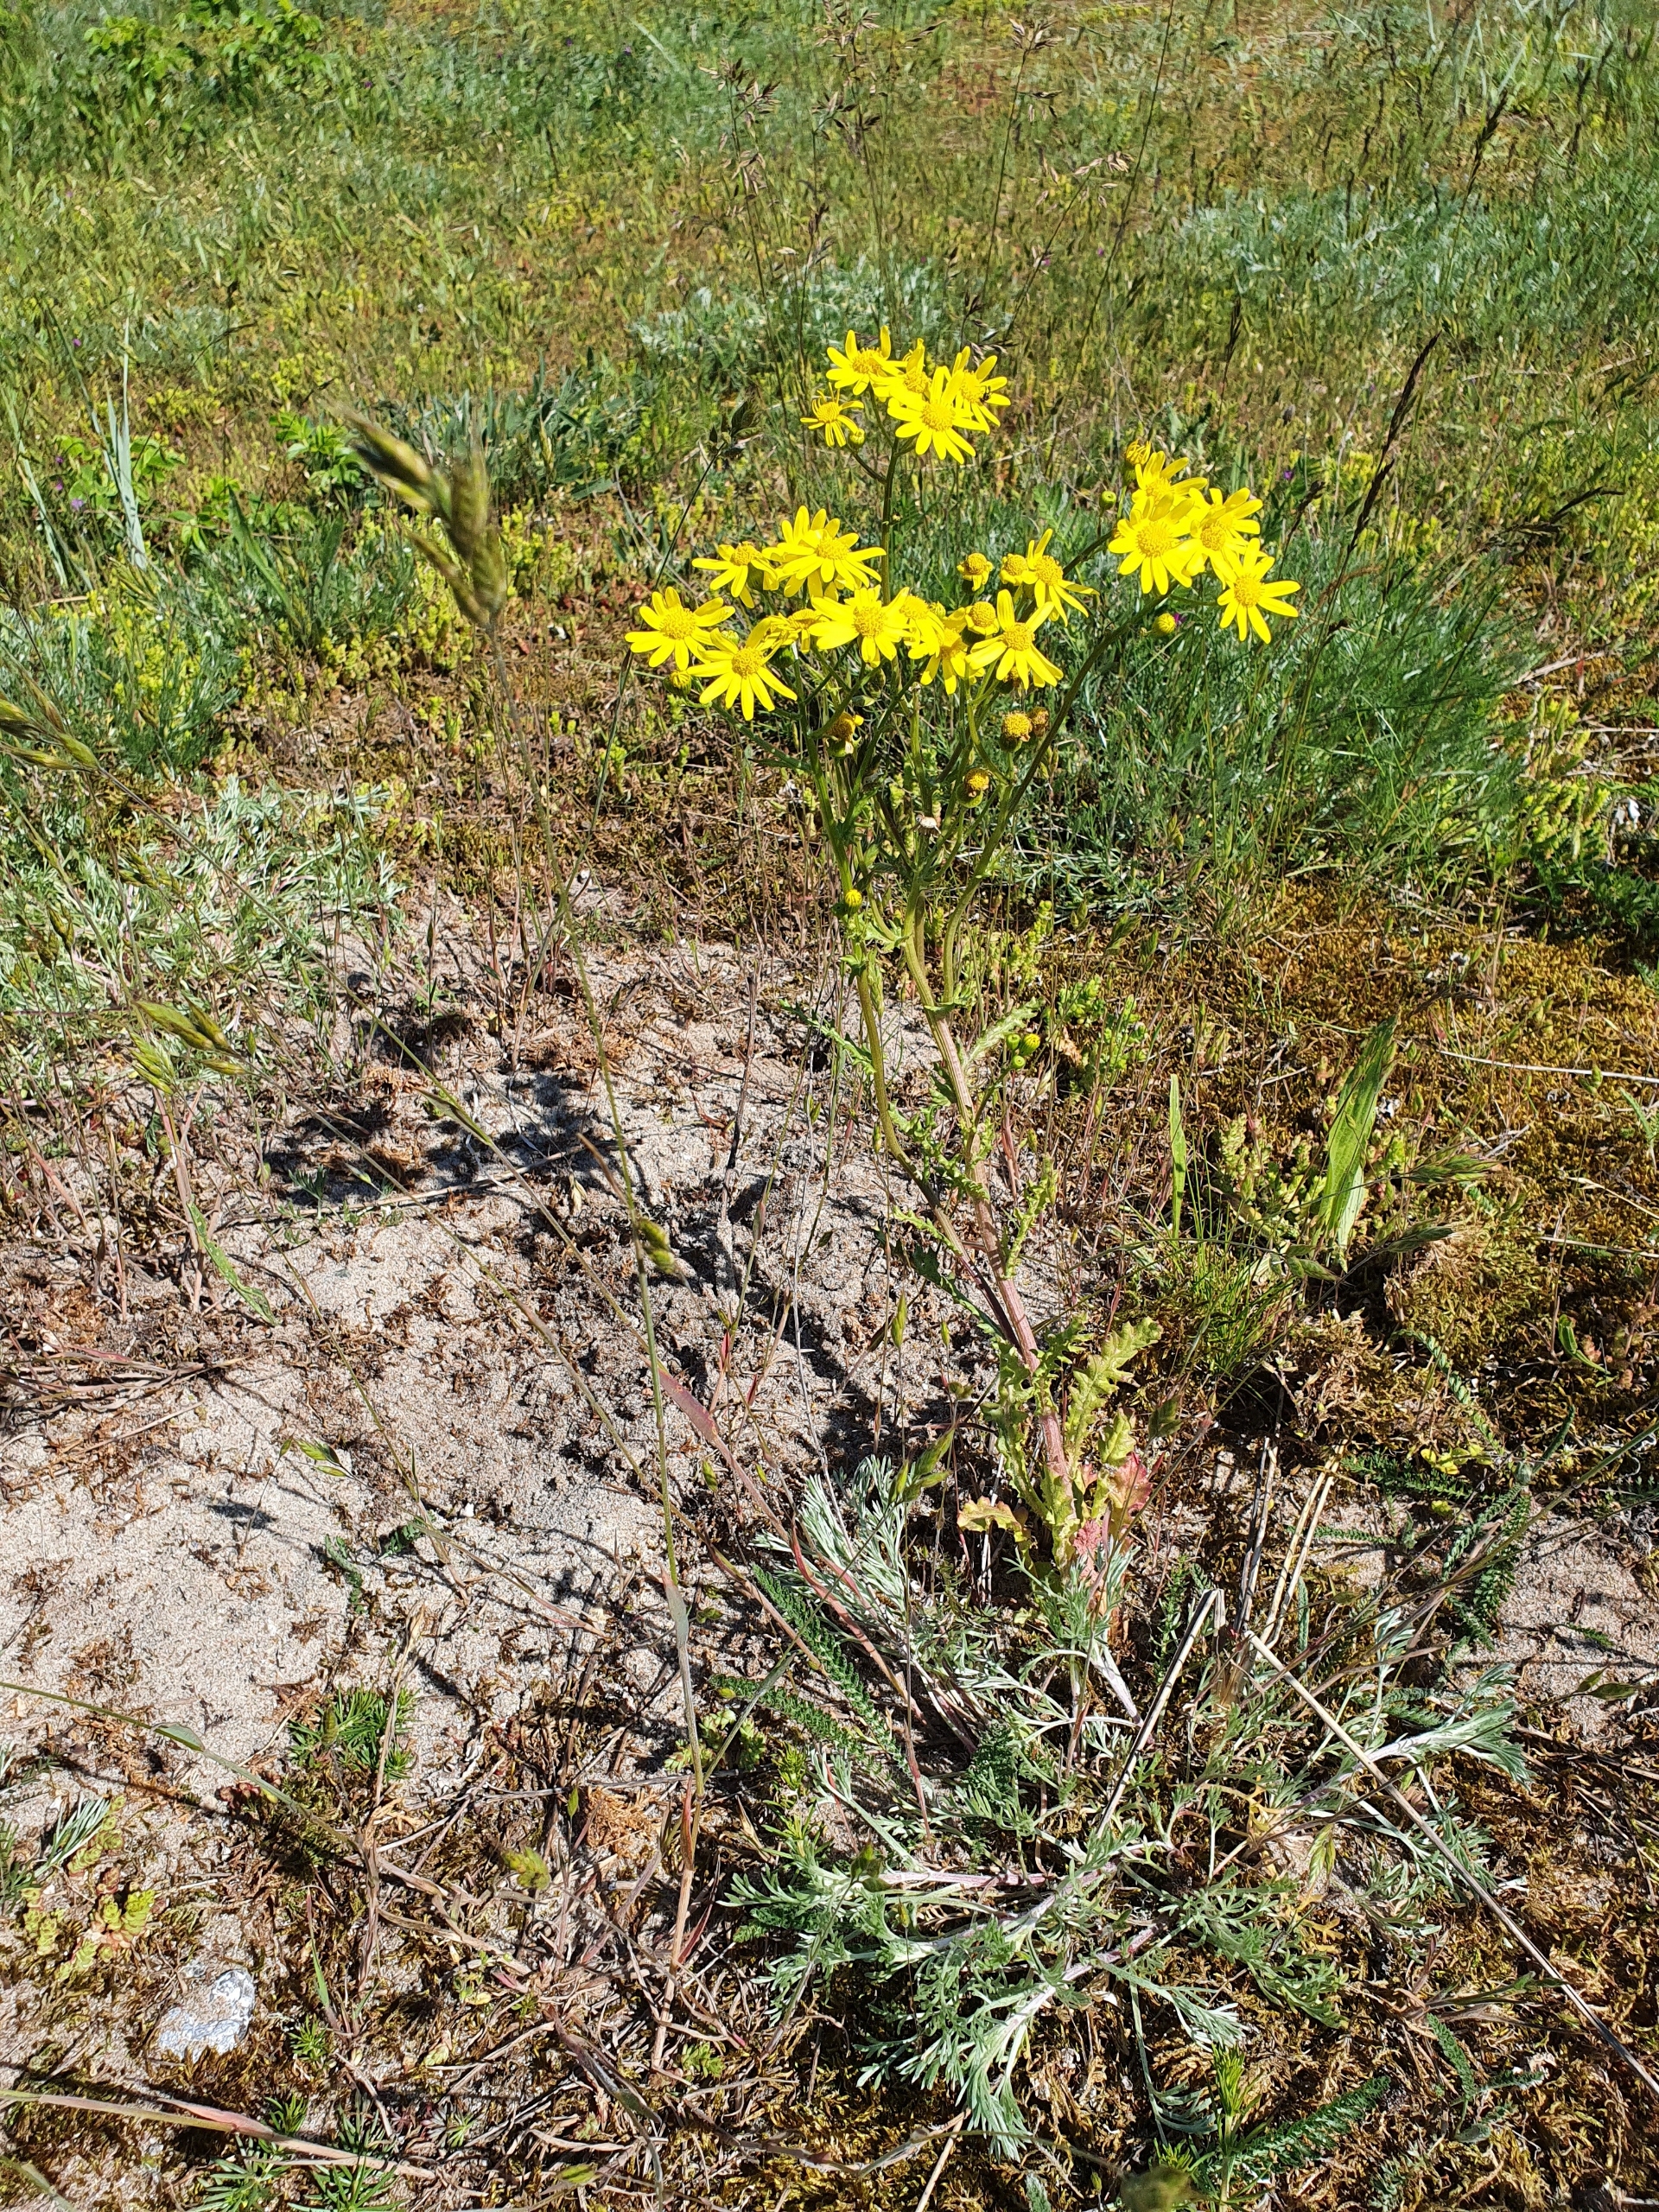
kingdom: Plantae
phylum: Tracheophyta
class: Magnoliopsida
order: Asterales
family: Asteraceae
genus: Senecio
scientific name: Senecio leucanthemifolius
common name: Vår-brandbæger
